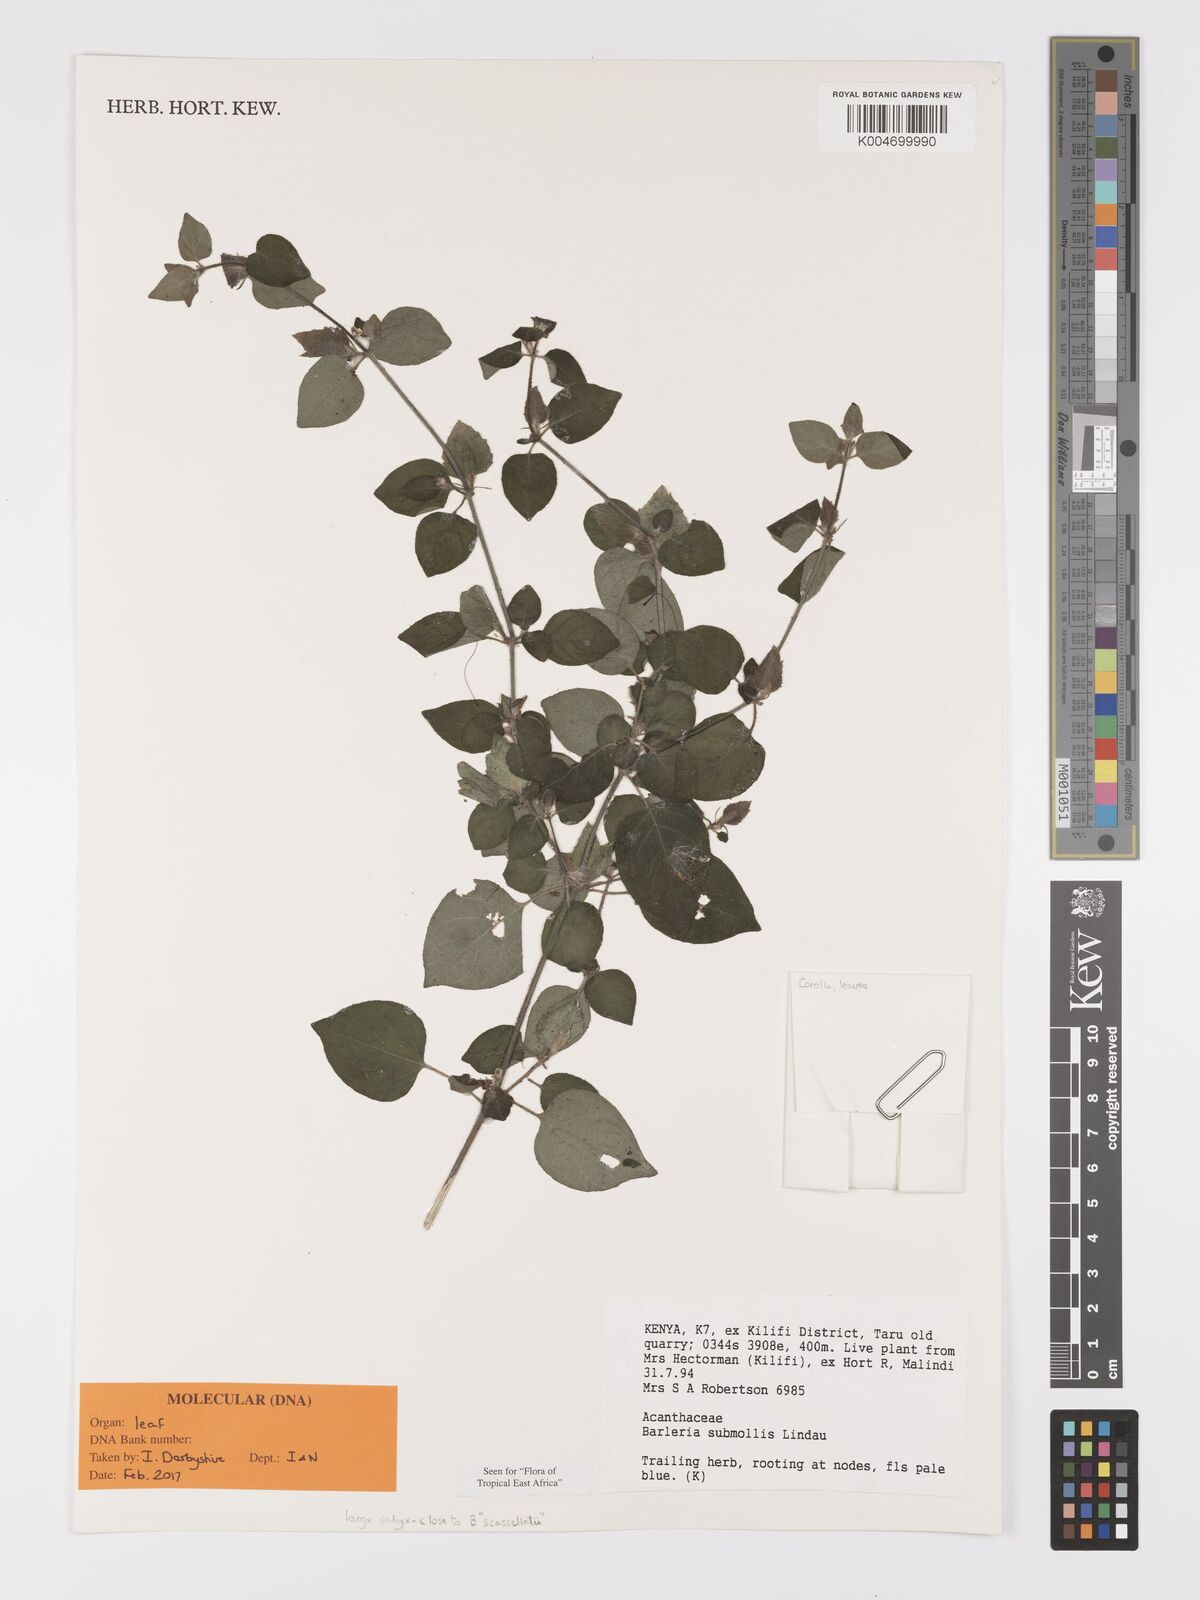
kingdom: Plantae
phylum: Tracheophyta
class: Magnoliopsida
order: Lamiales
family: Acanthaceae
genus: Barleria
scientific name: Barleria submollis
